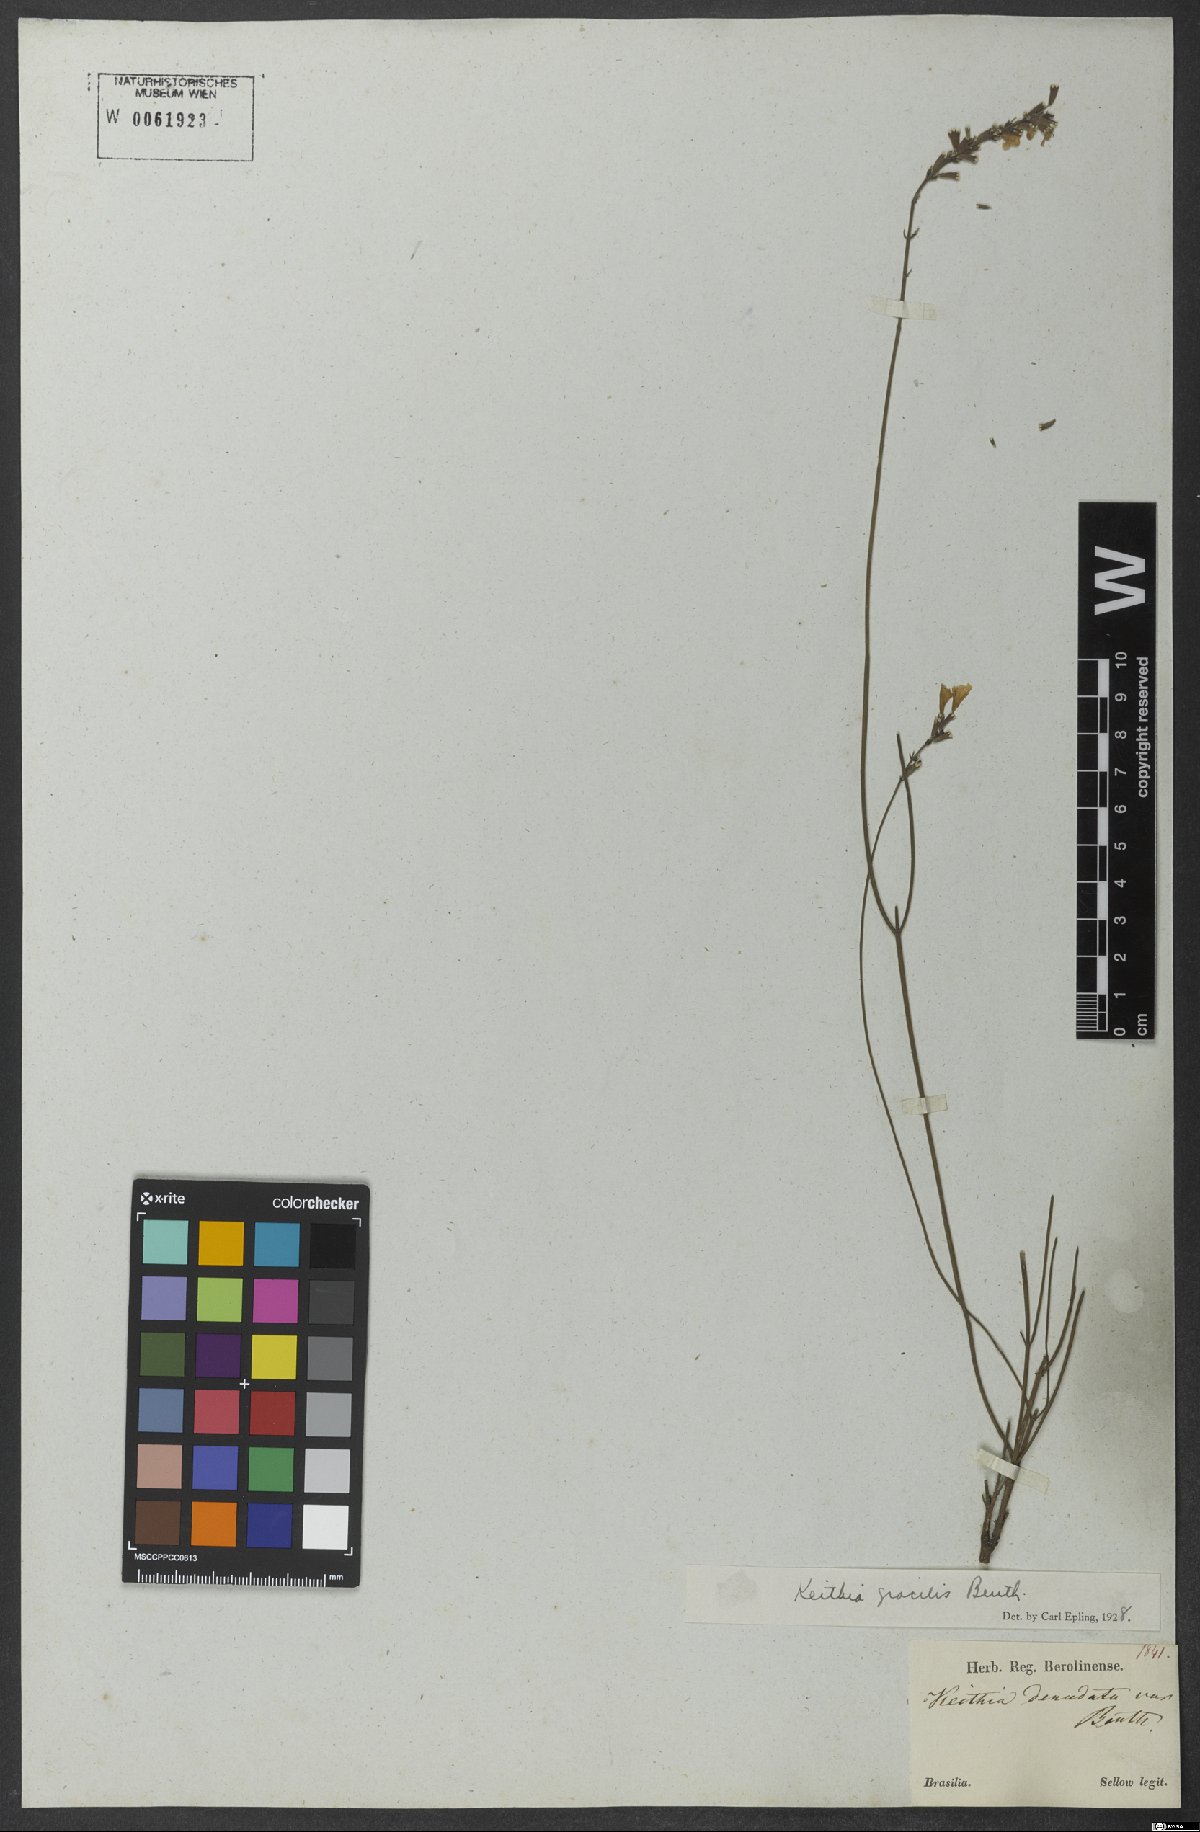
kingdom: Plantae
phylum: Tracheophyta
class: Magnoliopsida
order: Lamiales
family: Lamiaceae
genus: Rhabdocaulon
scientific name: Rhabdocaulon denudatum
